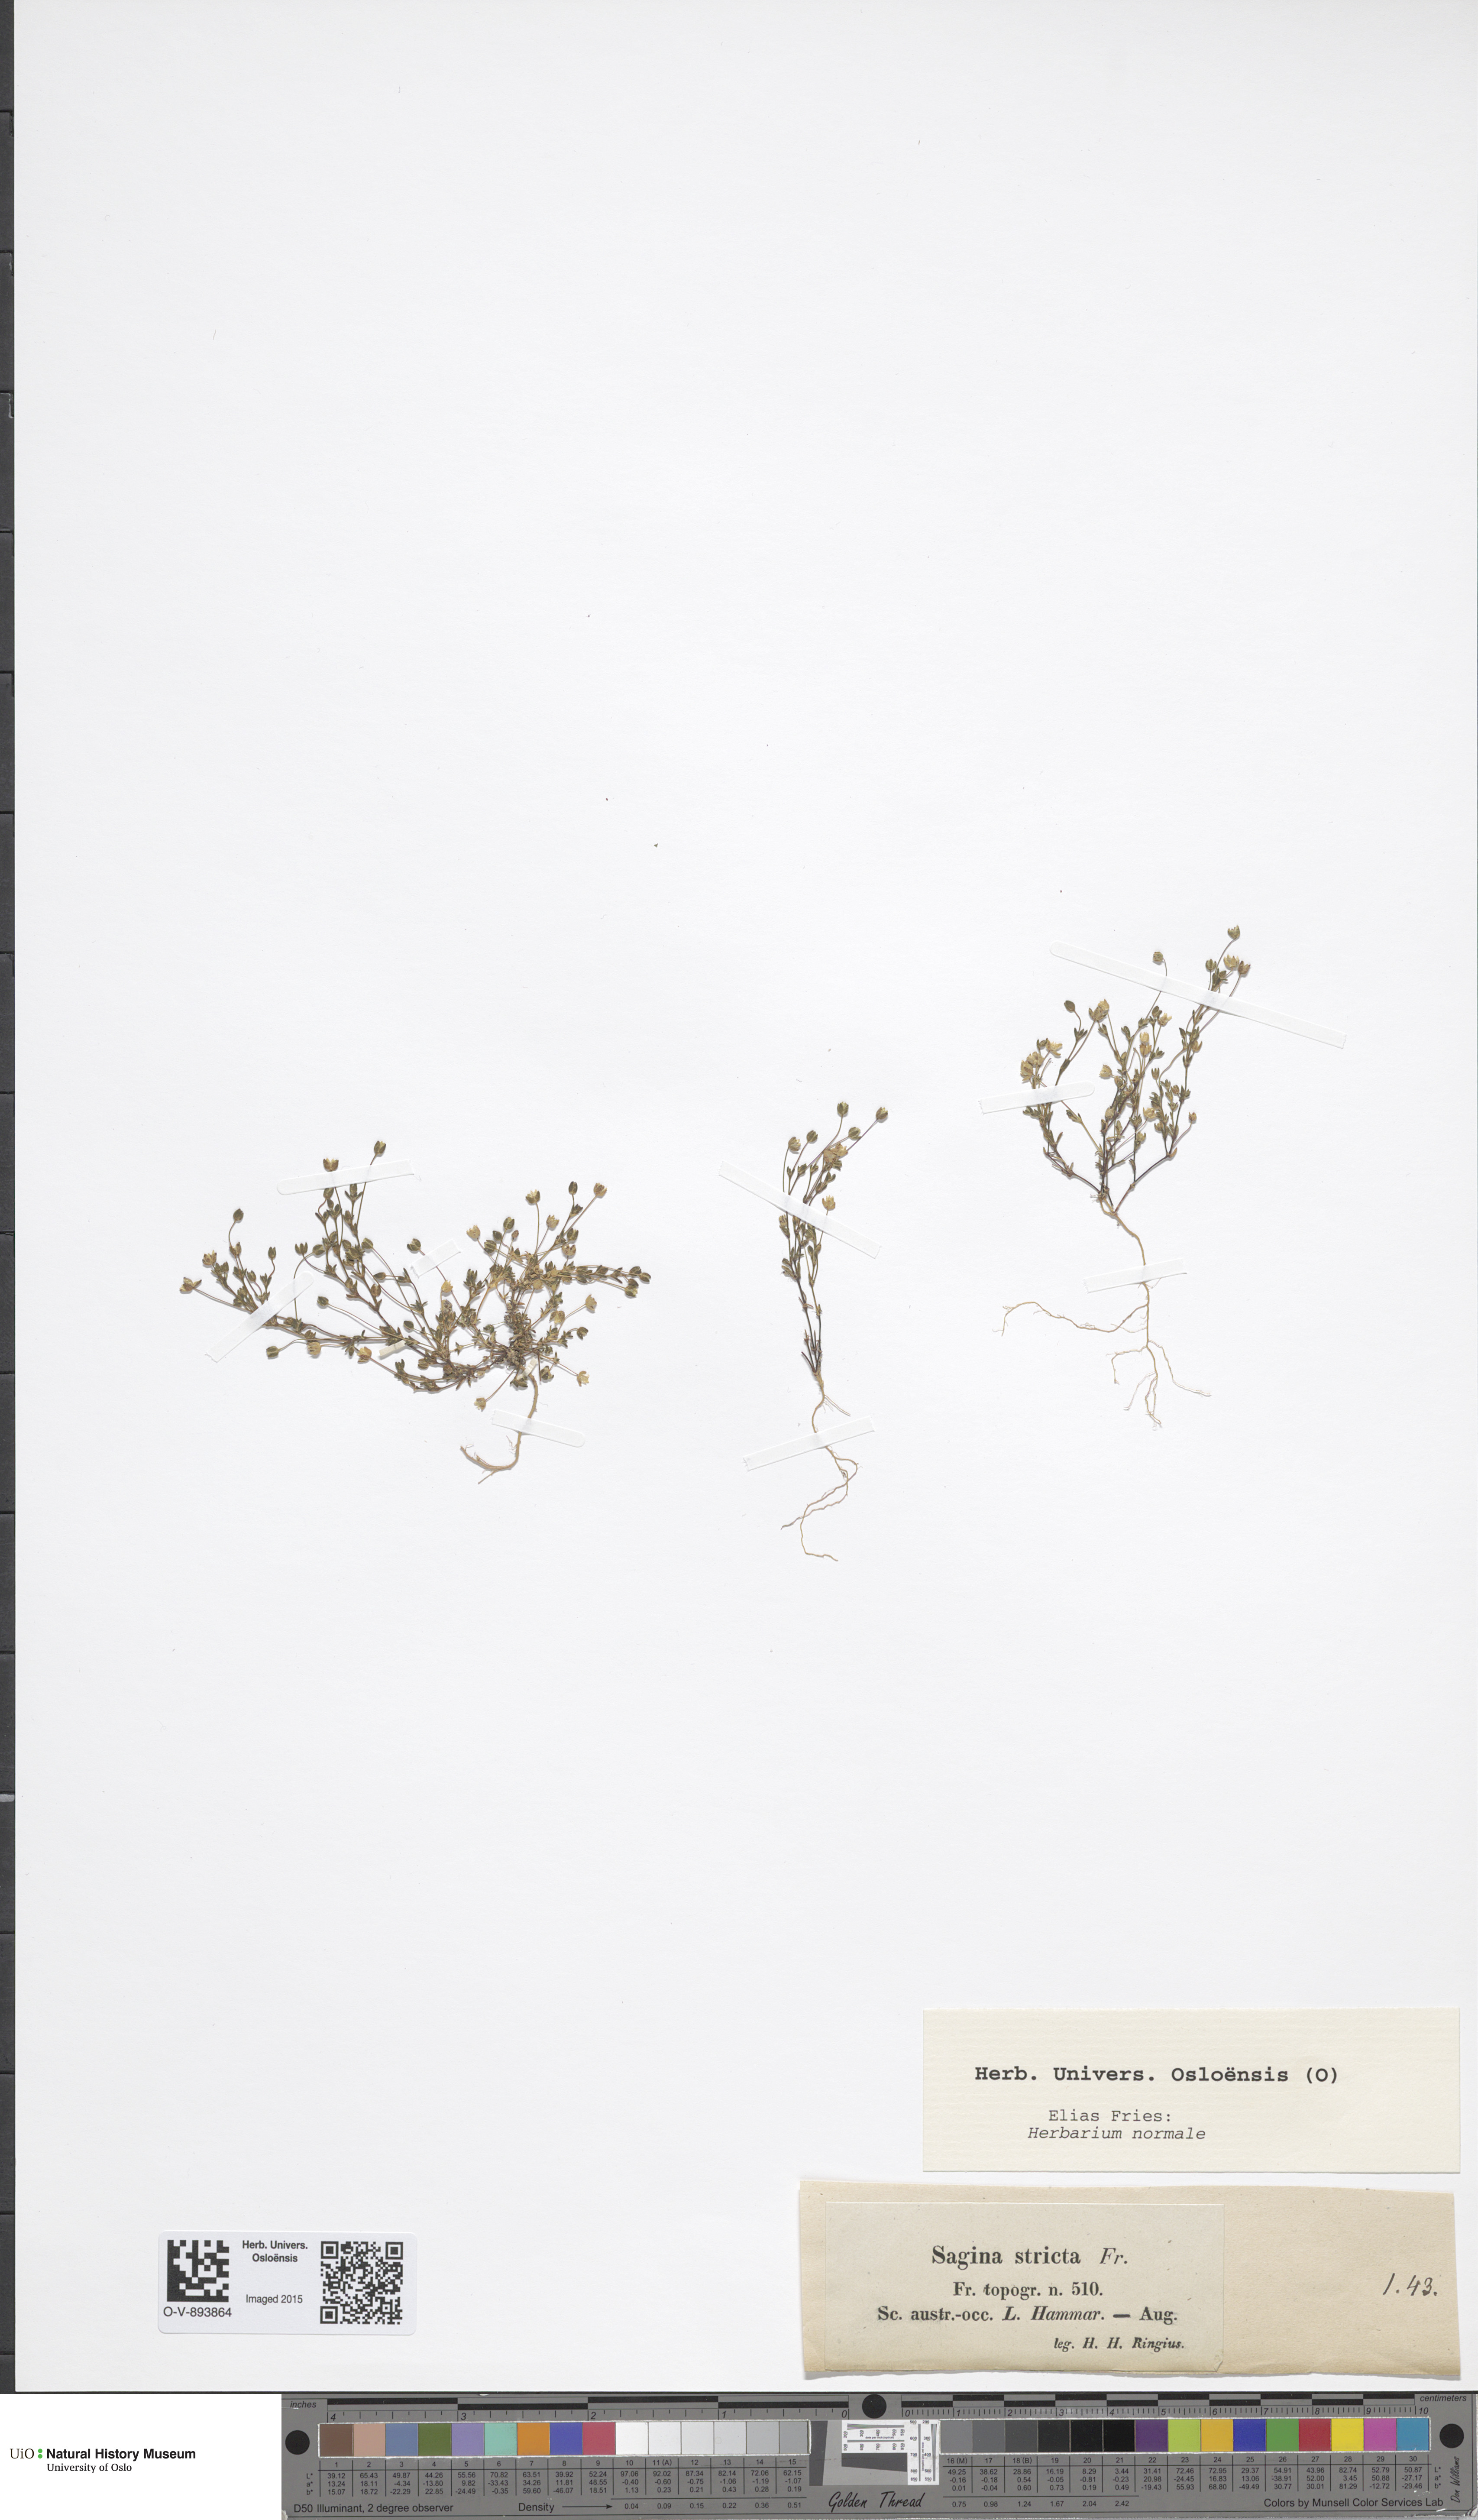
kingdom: Plantae
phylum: Tracheophyta
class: Magnoliopsida
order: Caryophyllales
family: Caryophyllaceae
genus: Sagina
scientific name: Sagina maritima
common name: Sea pearlwort
